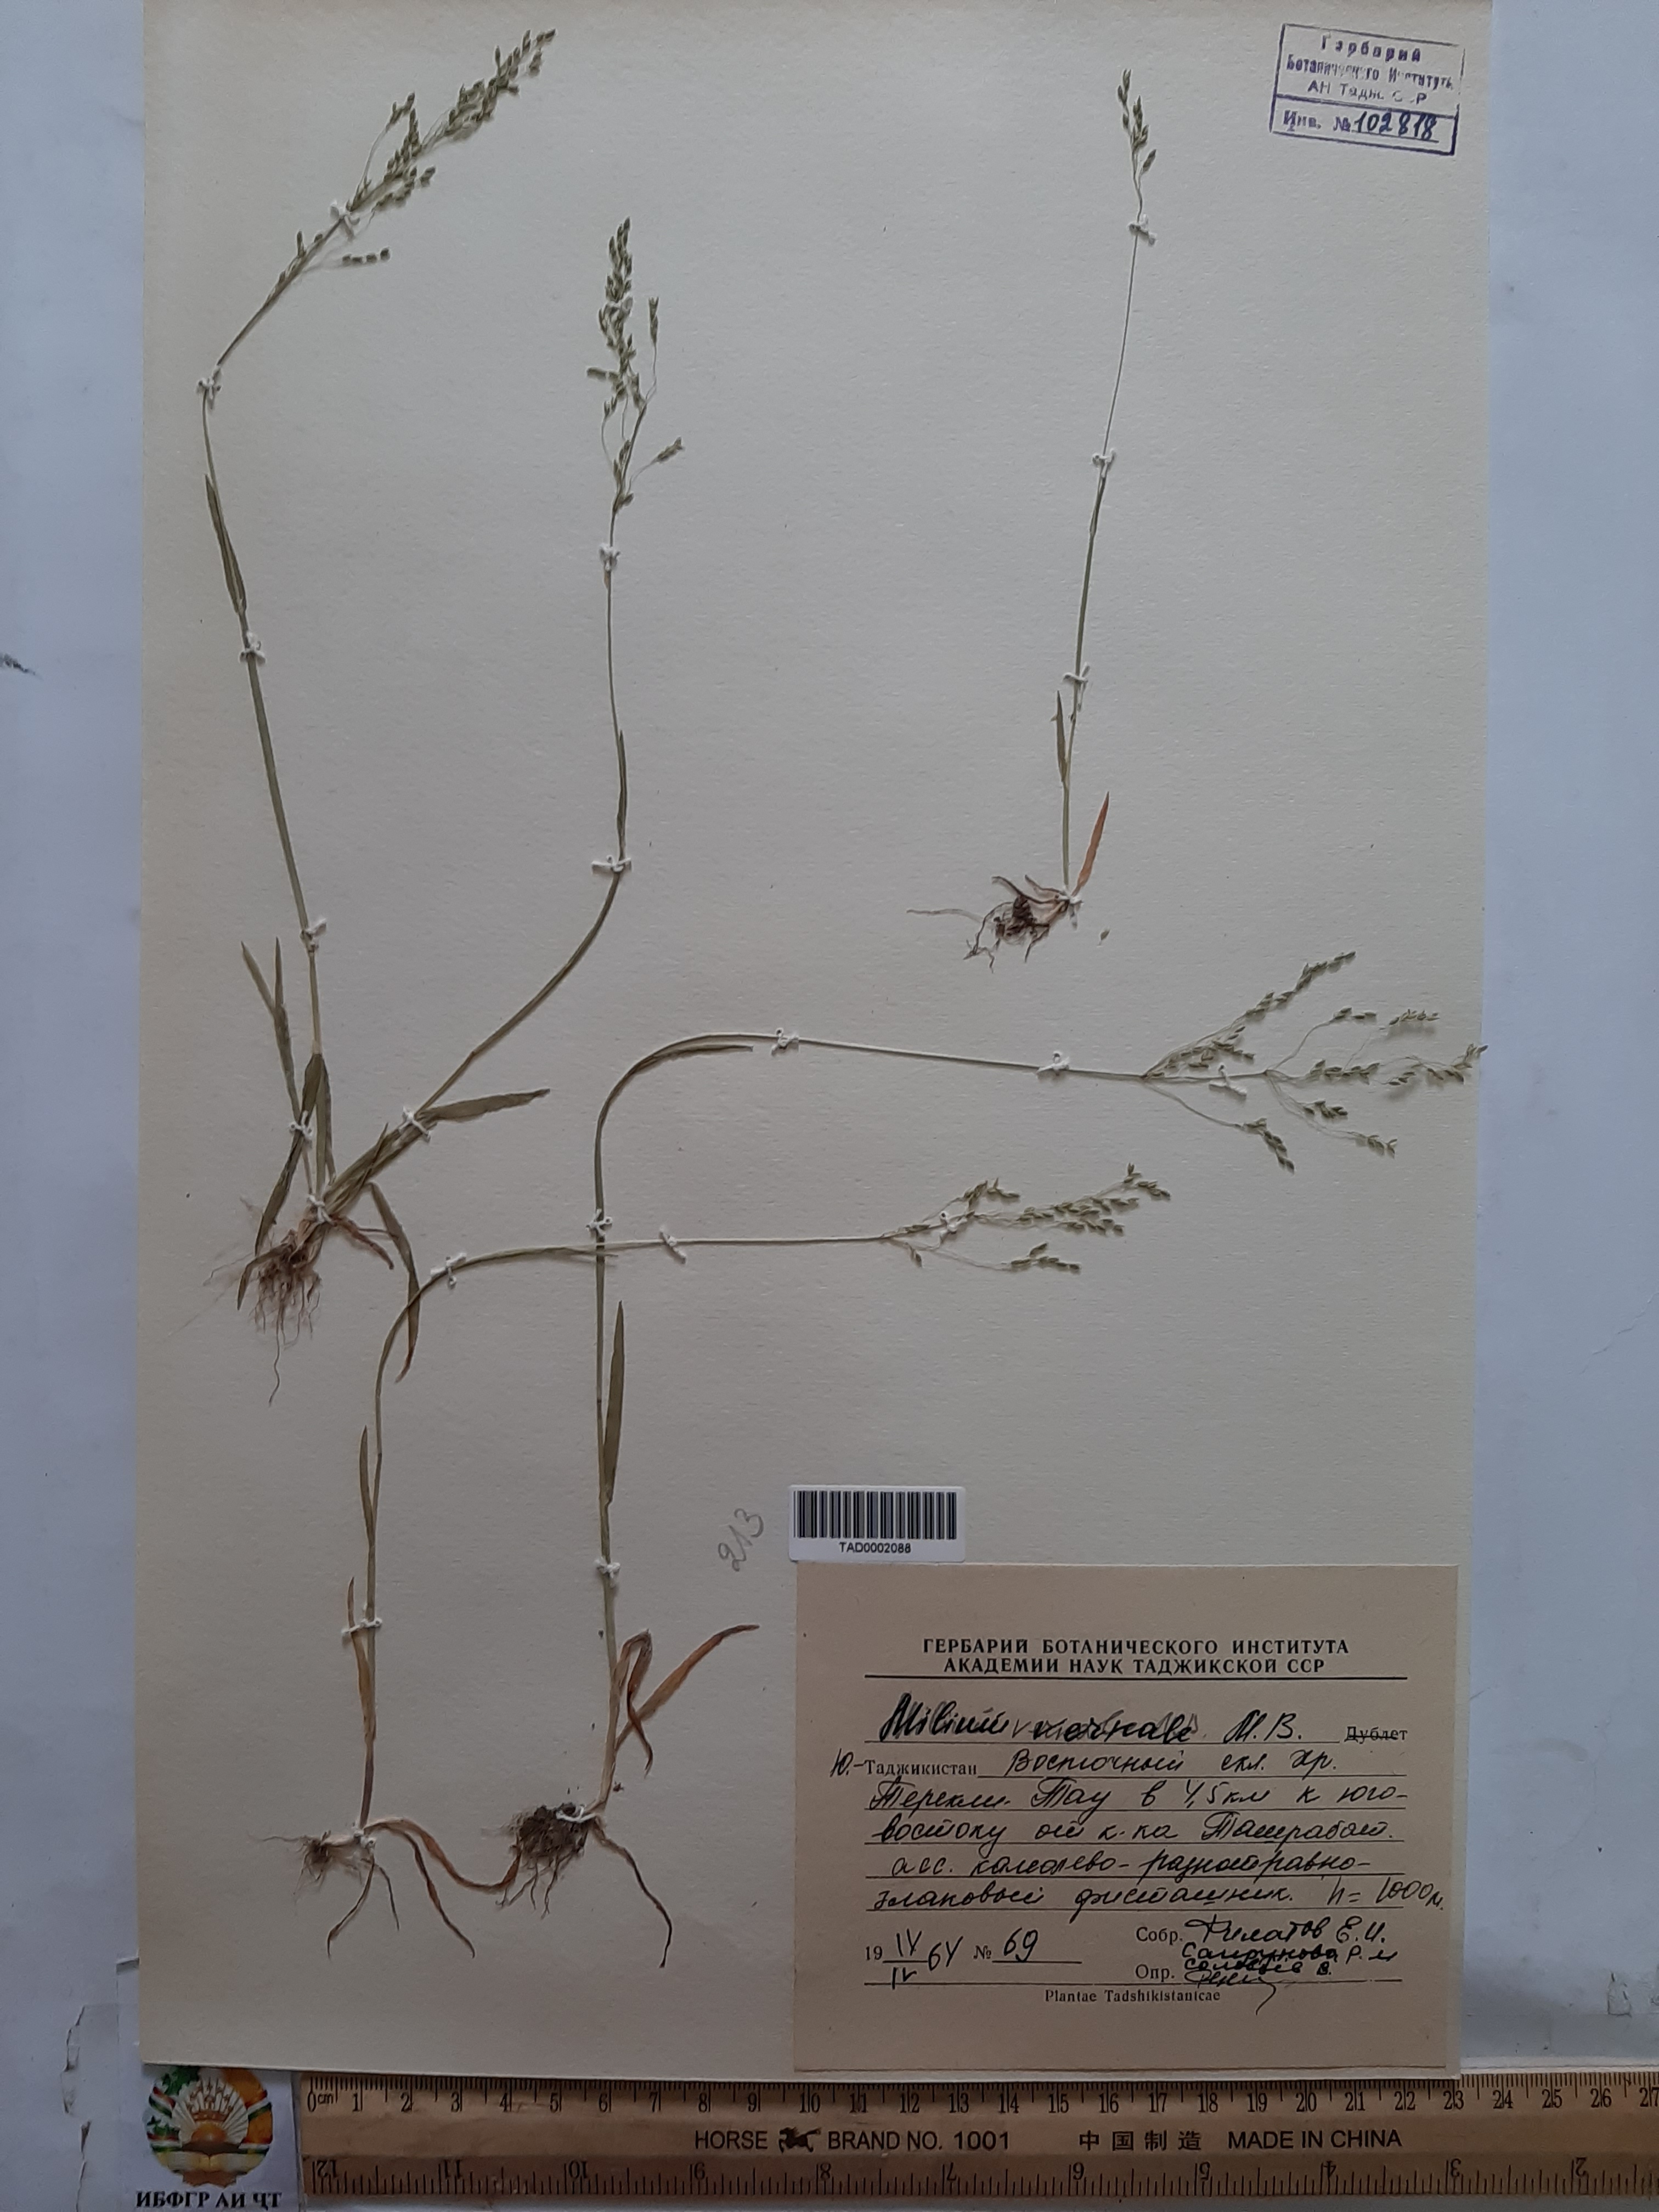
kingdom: Plantae
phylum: Tracheophyta
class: Liliopsida
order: Poales
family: Poaceae
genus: Milium
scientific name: Milium vernale
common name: Early millet
